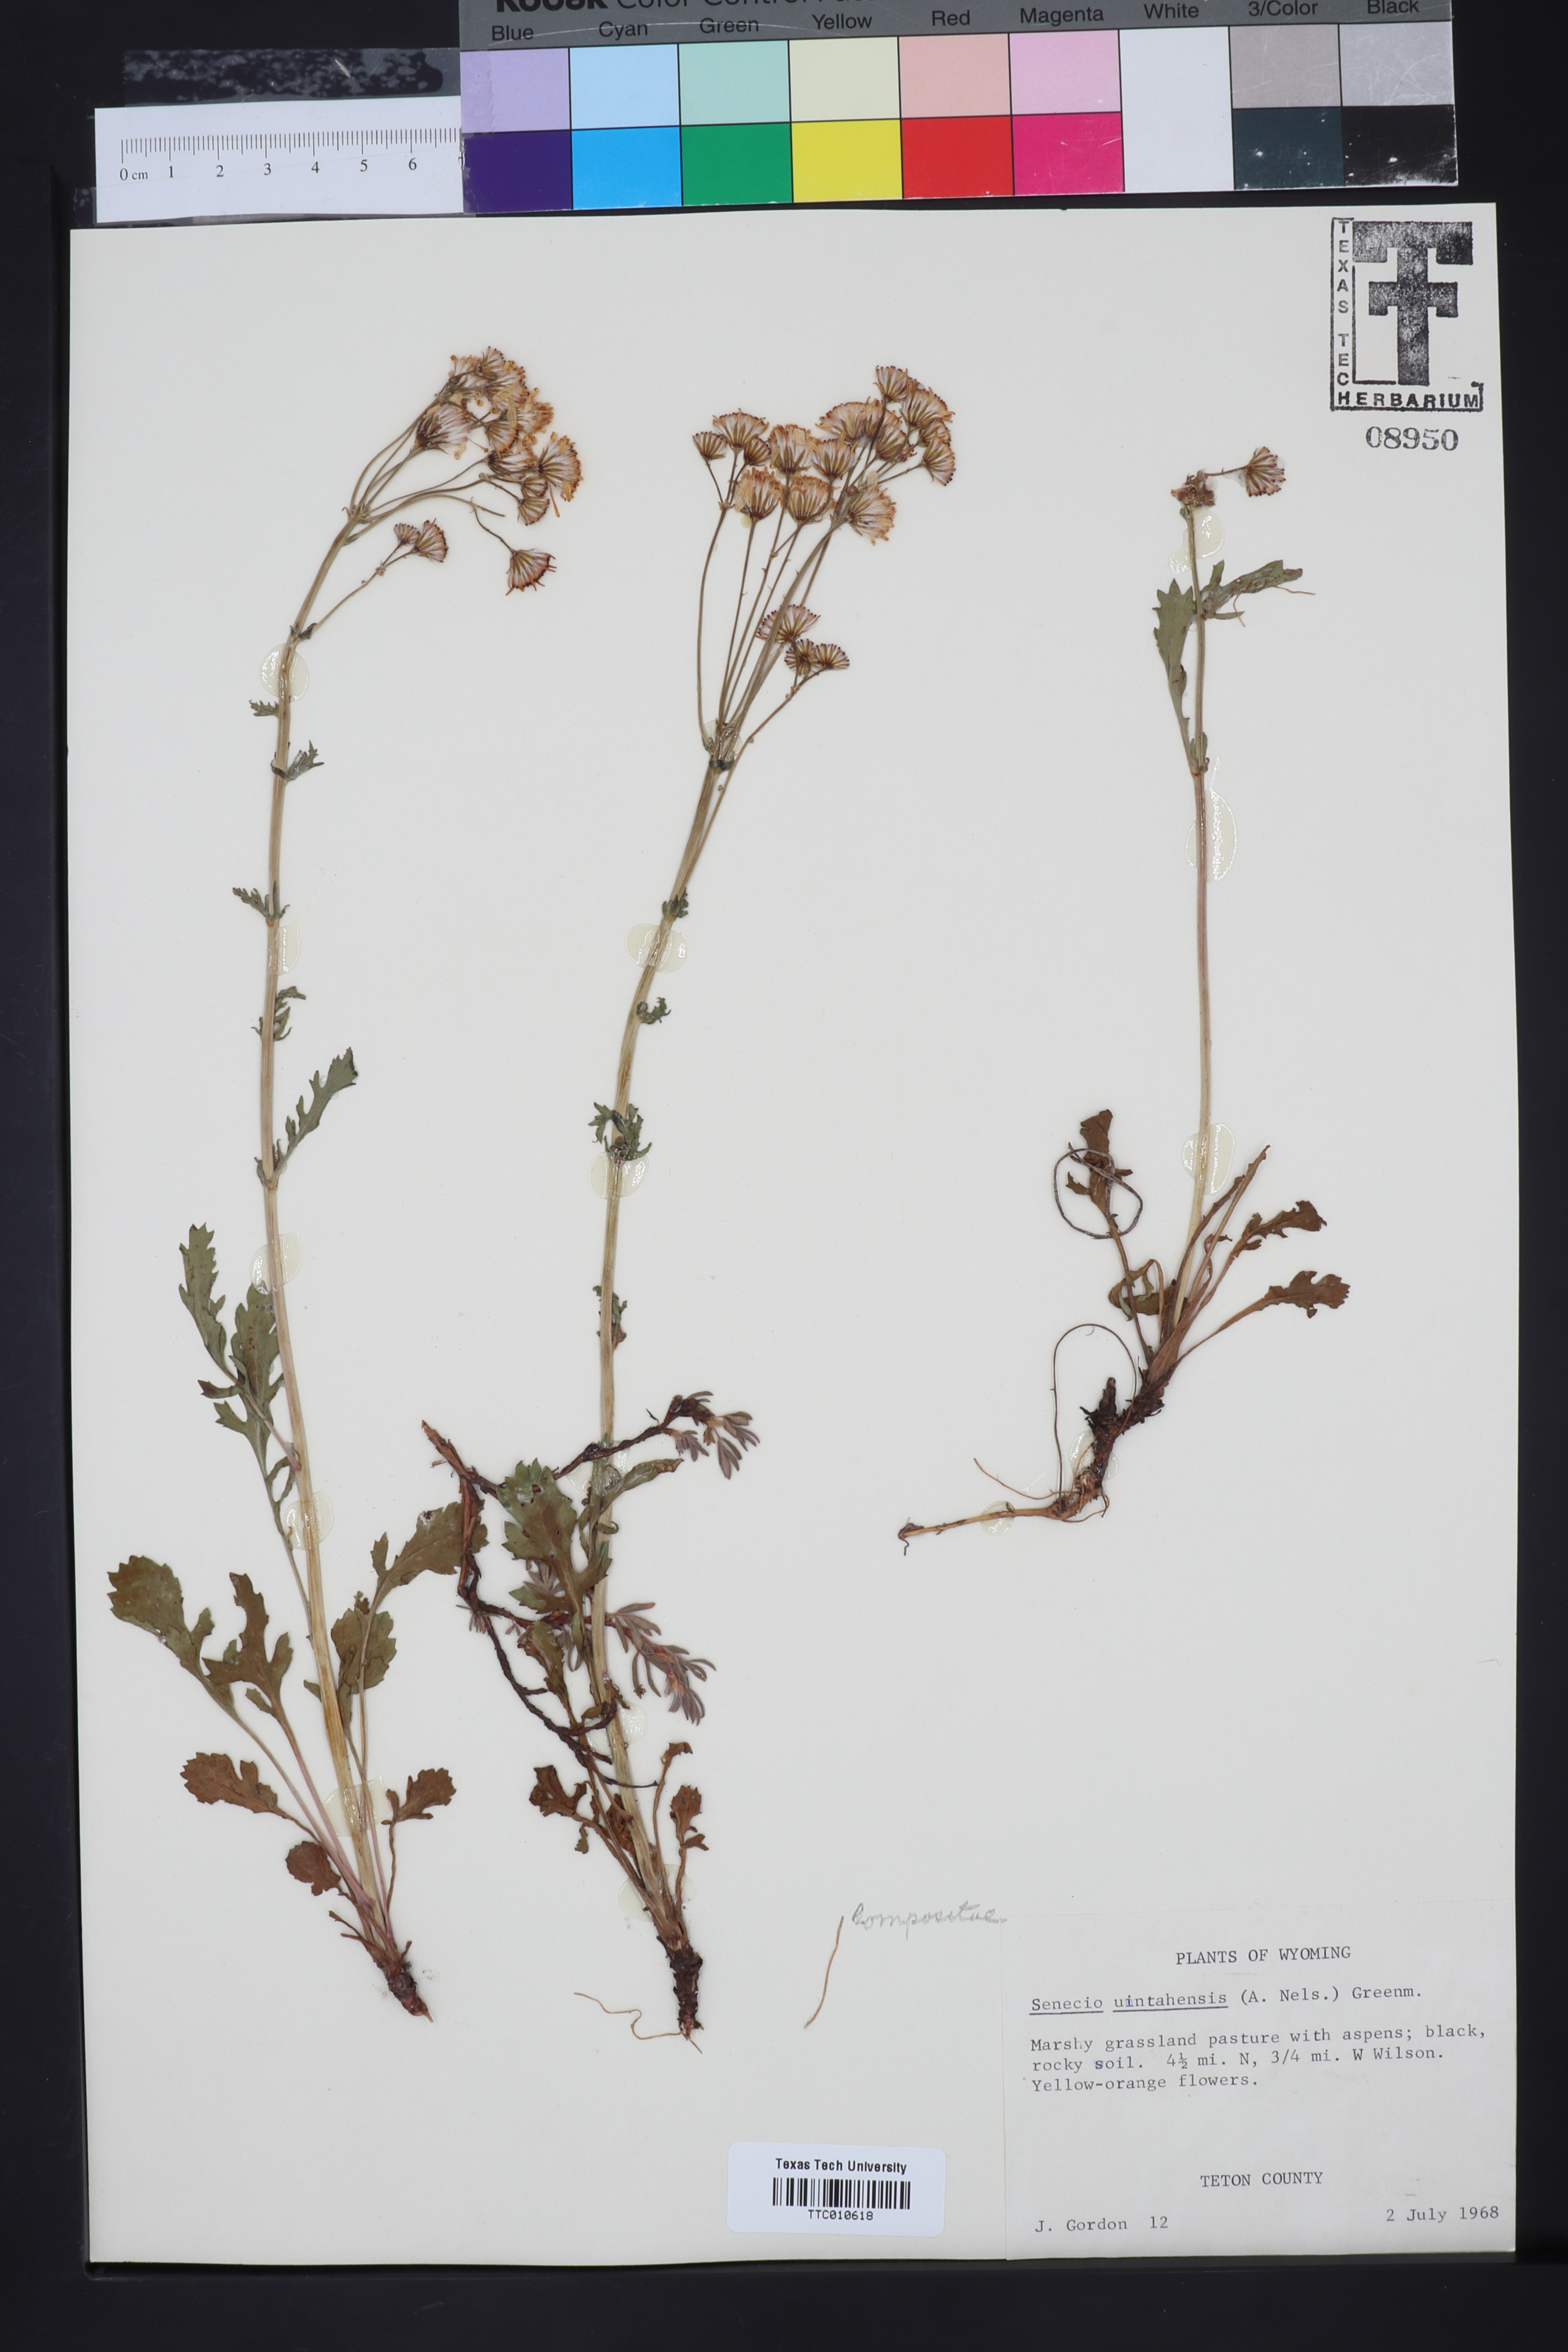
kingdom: Plantae
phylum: Tracheophyta
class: Magnoliopsida
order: Asterales
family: Asteraceae
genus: Senecio
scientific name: Senecio utahensis
